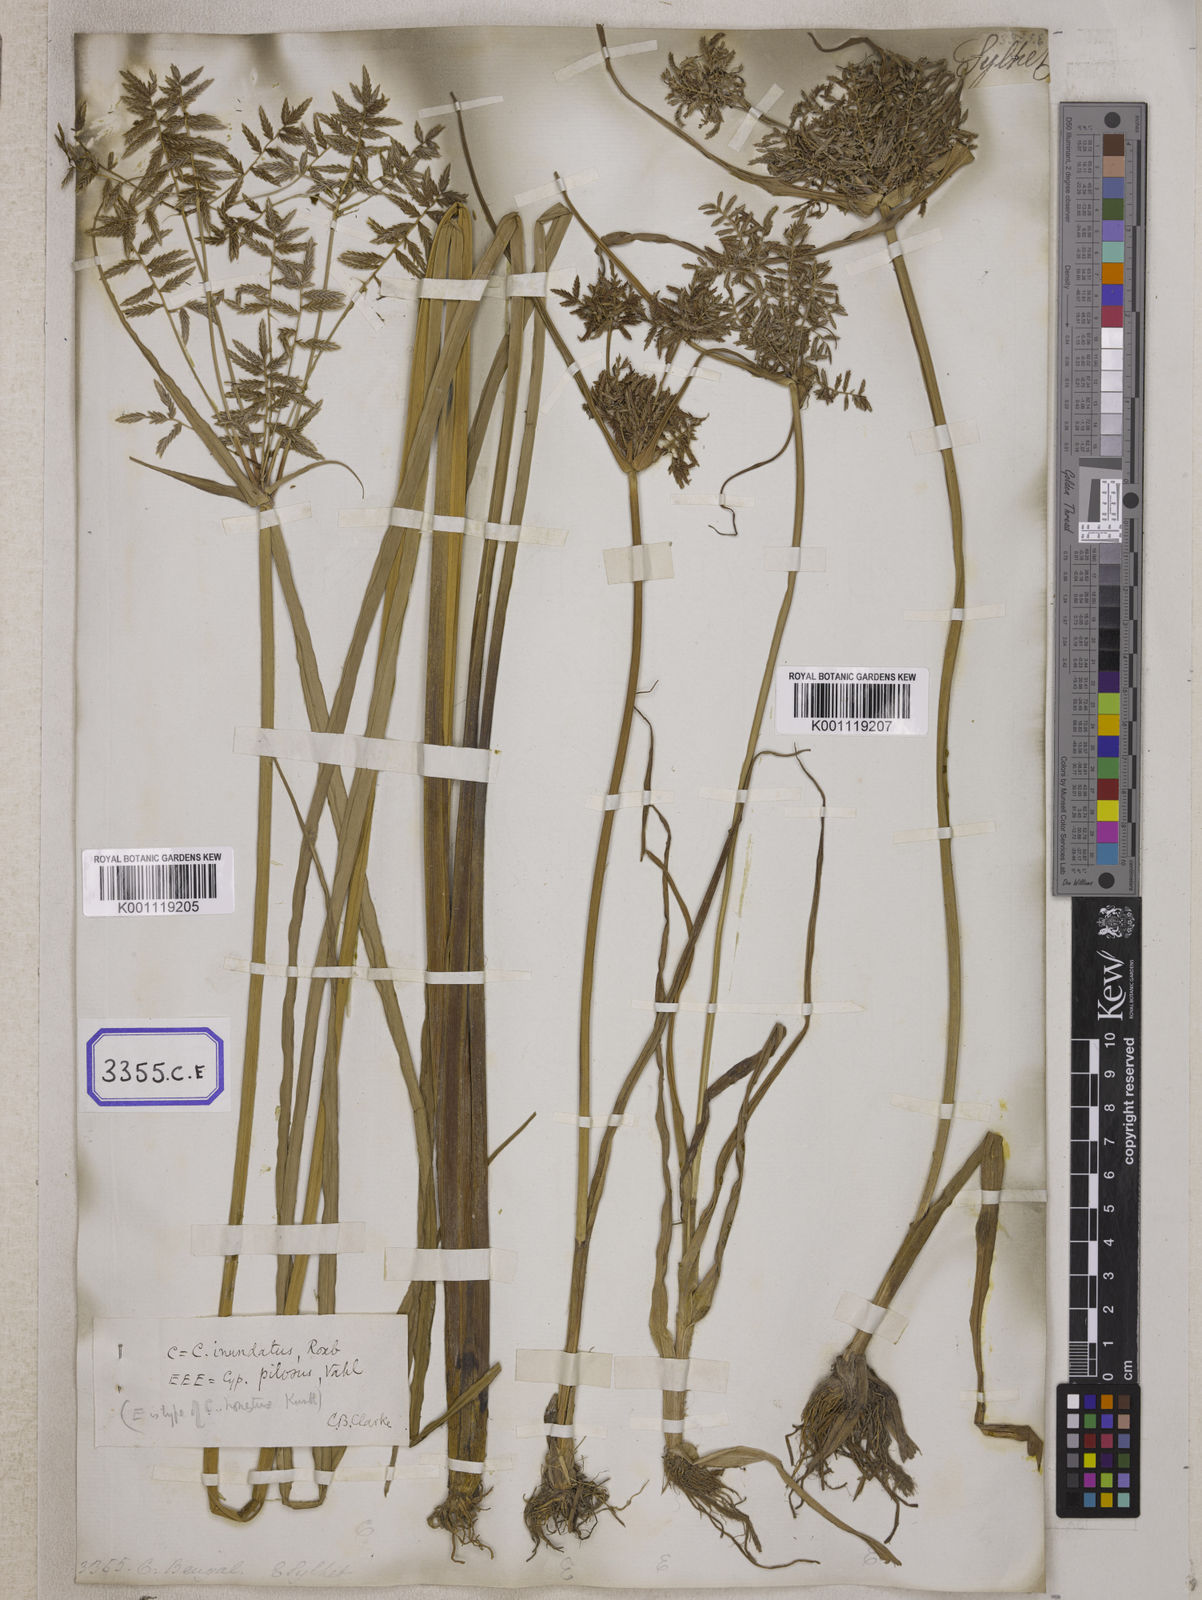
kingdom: Plantae
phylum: Tracheophyta
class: Liliopsida
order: Poales
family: Cyperaceae
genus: Cyperus
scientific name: Cyperus
